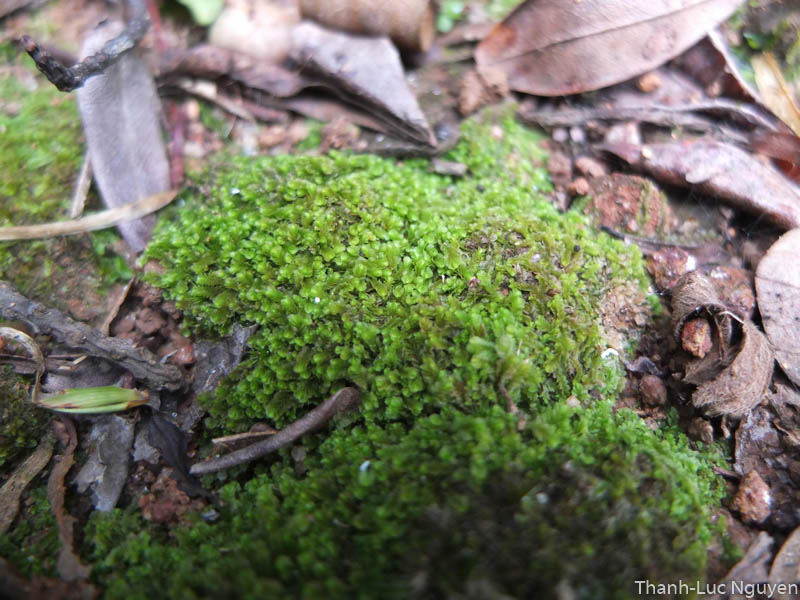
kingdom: Plantae
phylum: Marchantiophyta
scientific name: Marchantiophyta
